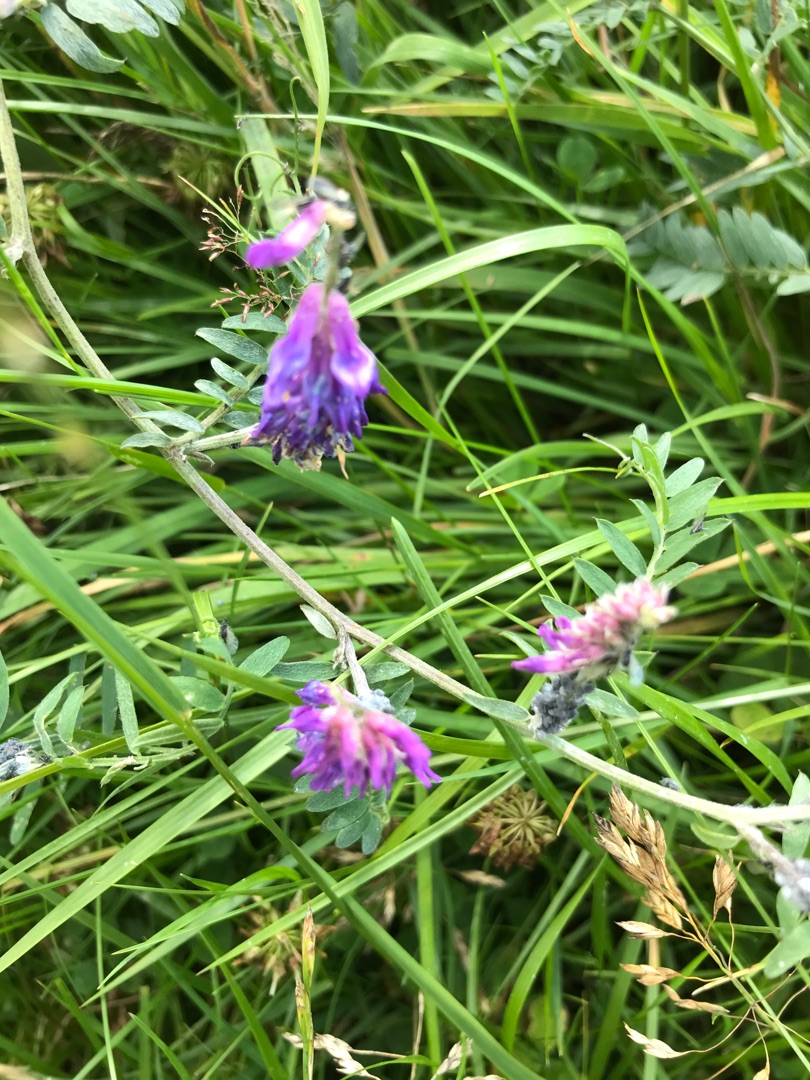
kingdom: Plantae
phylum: Tracheophyta
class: Magnoliopsida
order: Fabales
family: Fabaceae
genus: Vicia
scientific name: Vicia cracca
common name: Muse-vikke
